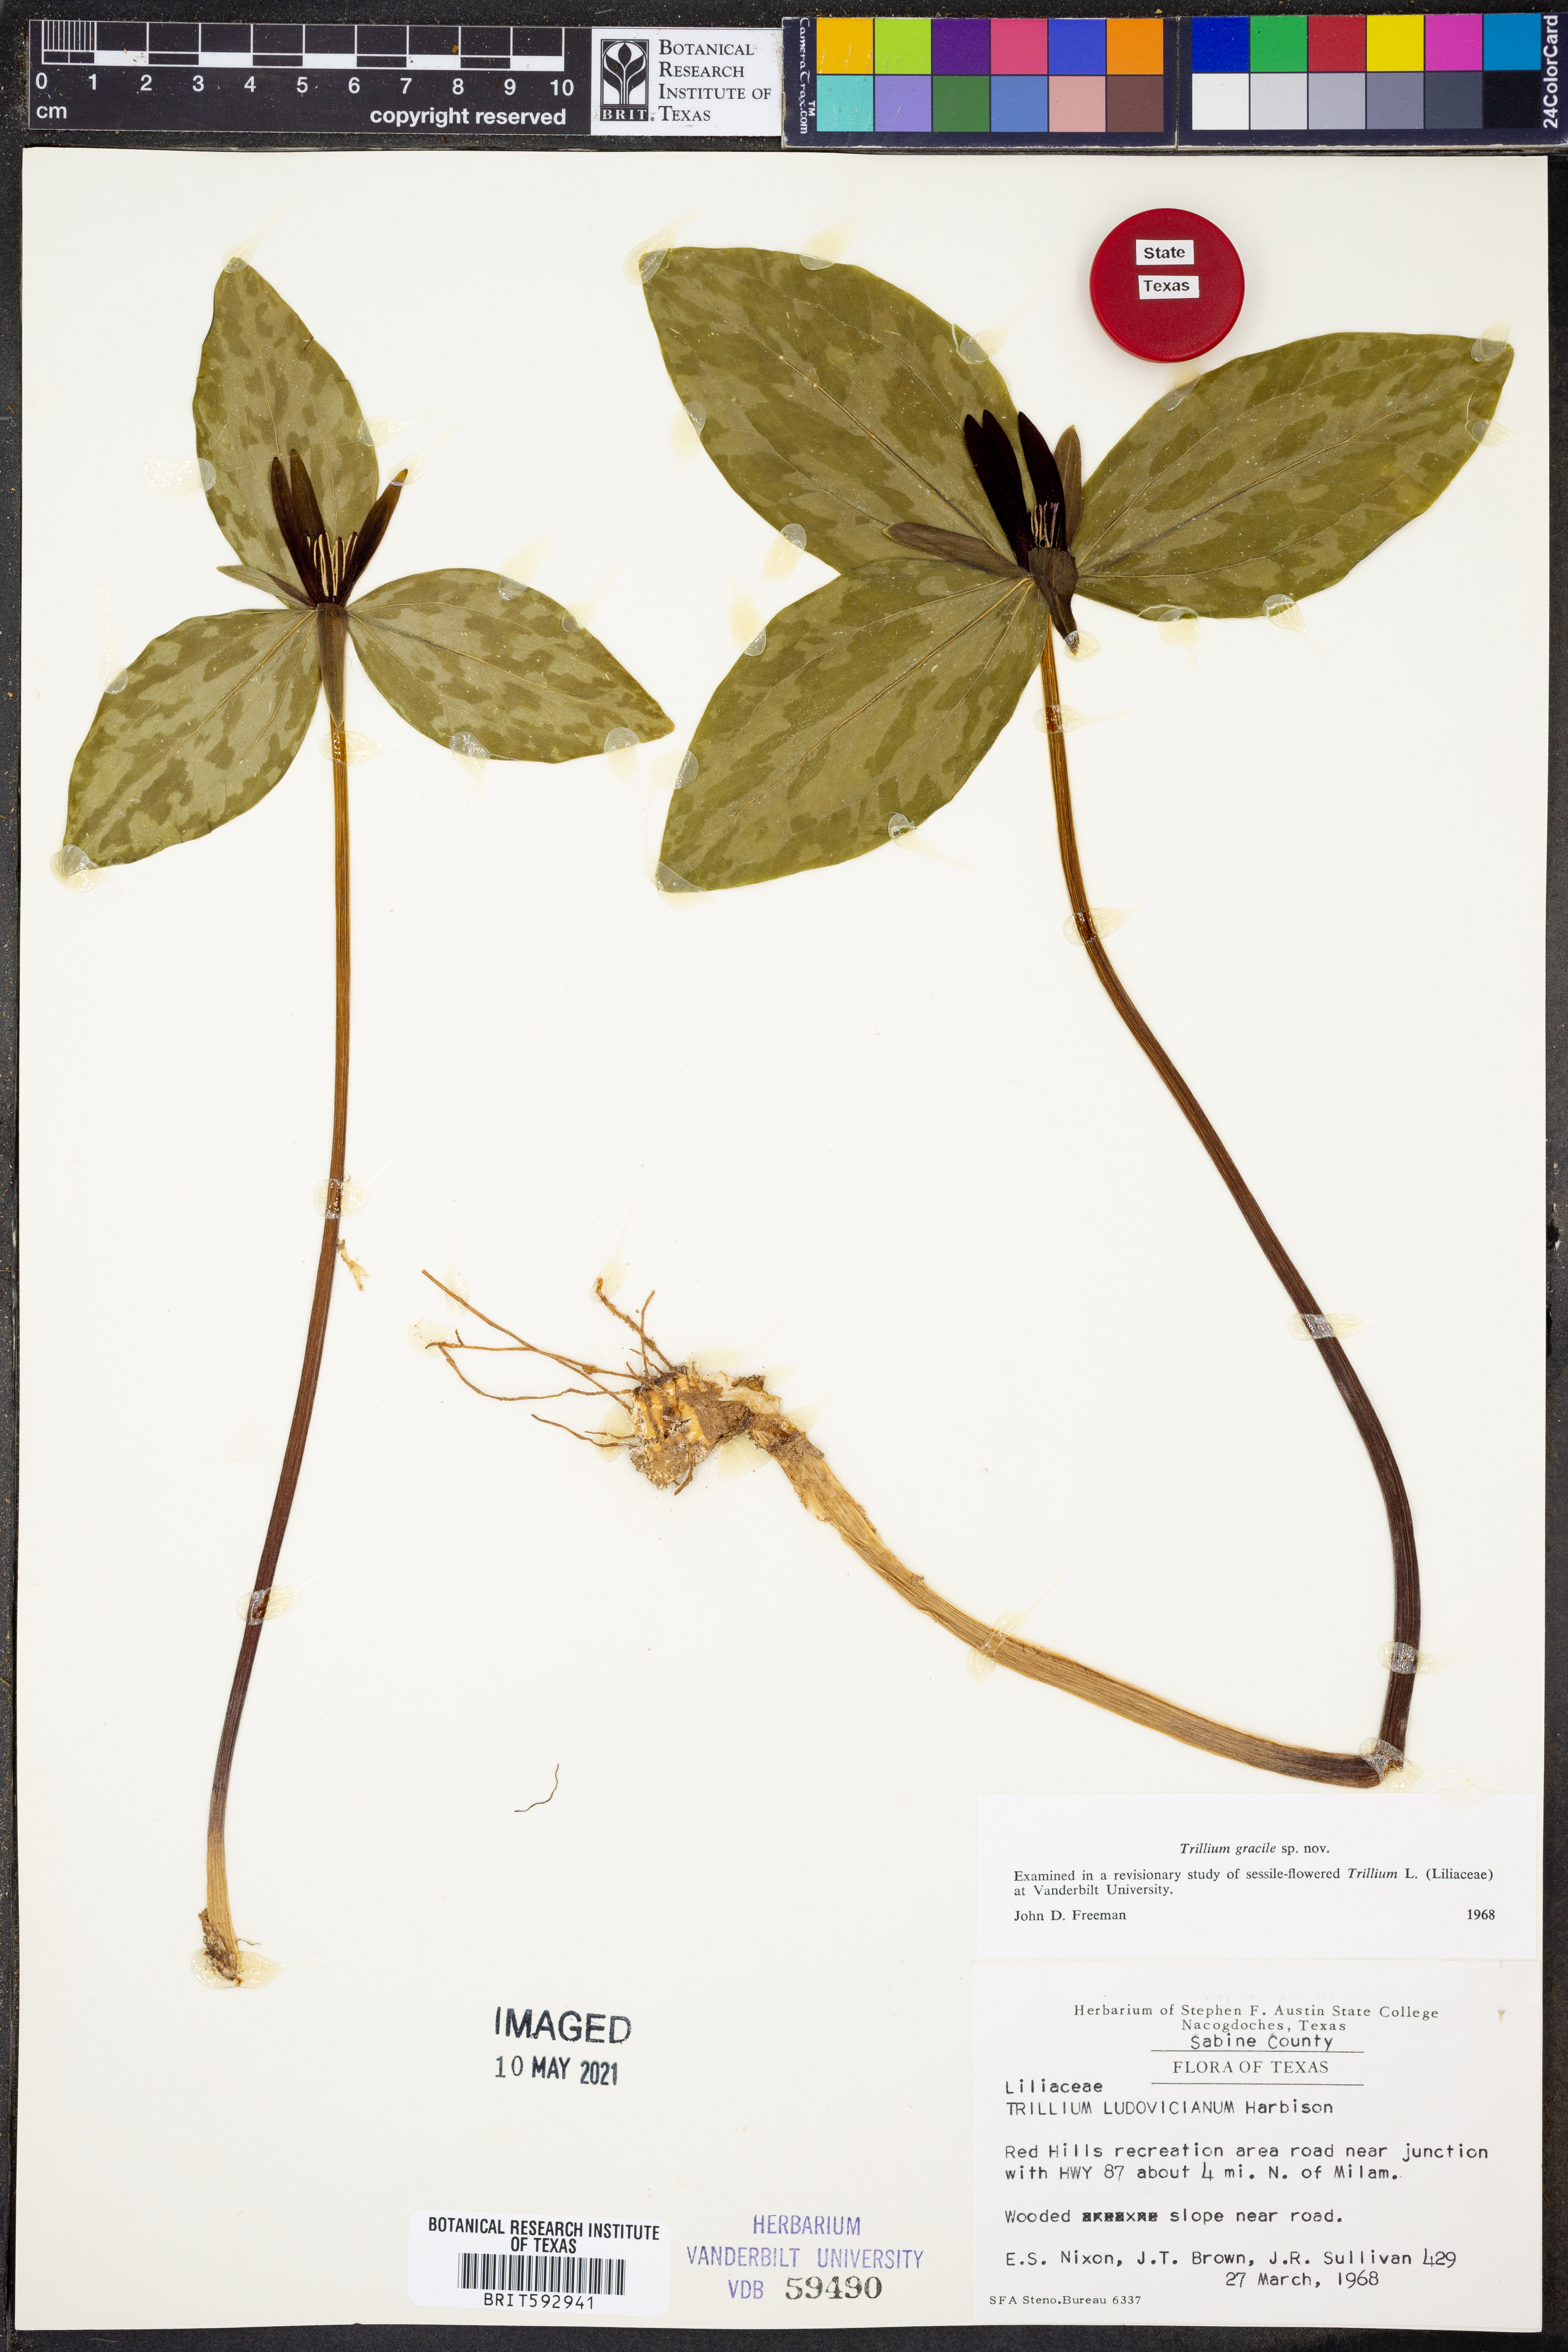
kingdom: Plantae
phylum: Tracheophyta
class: Liliopsida
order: Liliales
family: Melanthiaceae
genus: Trillium
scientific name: Trillium gracile
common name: Graceful trillium
